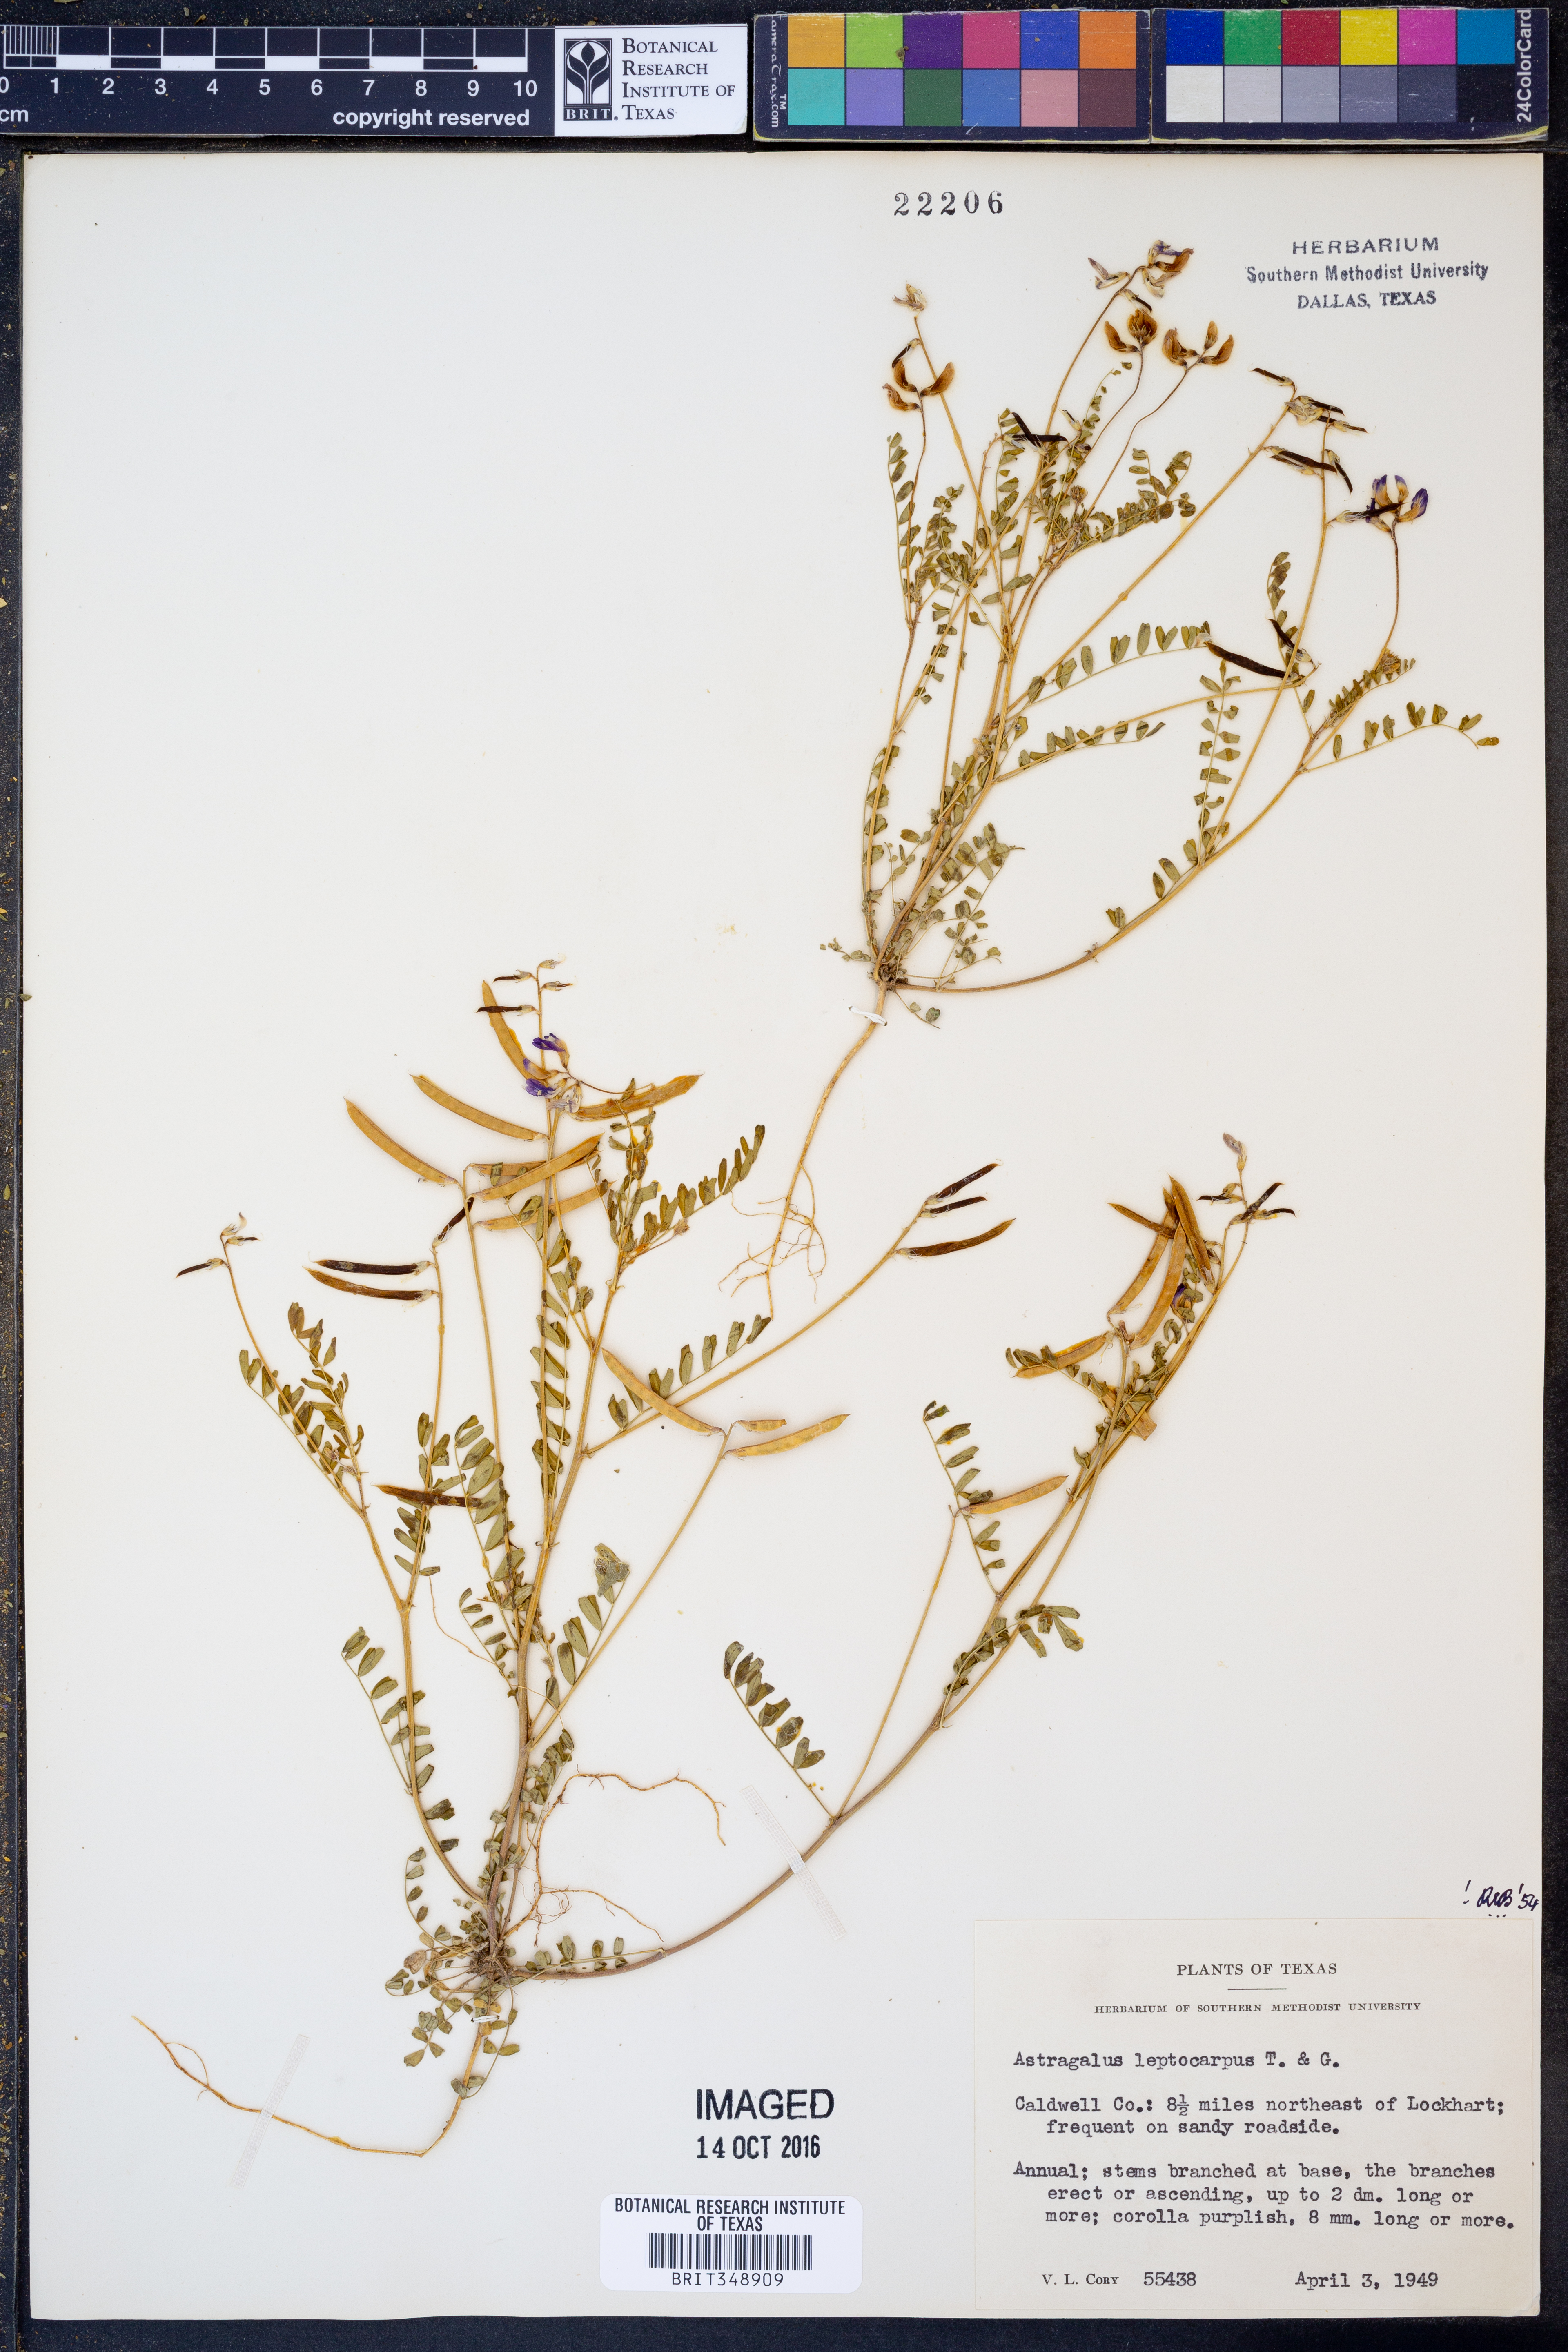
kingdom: Plantae
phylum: Tracheophyta
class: Magnoliopsida
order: Fabales
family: Fabaceae
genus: Astragalus
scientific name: Astragalus leptocarpus
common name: Bodkin milk-vetch
